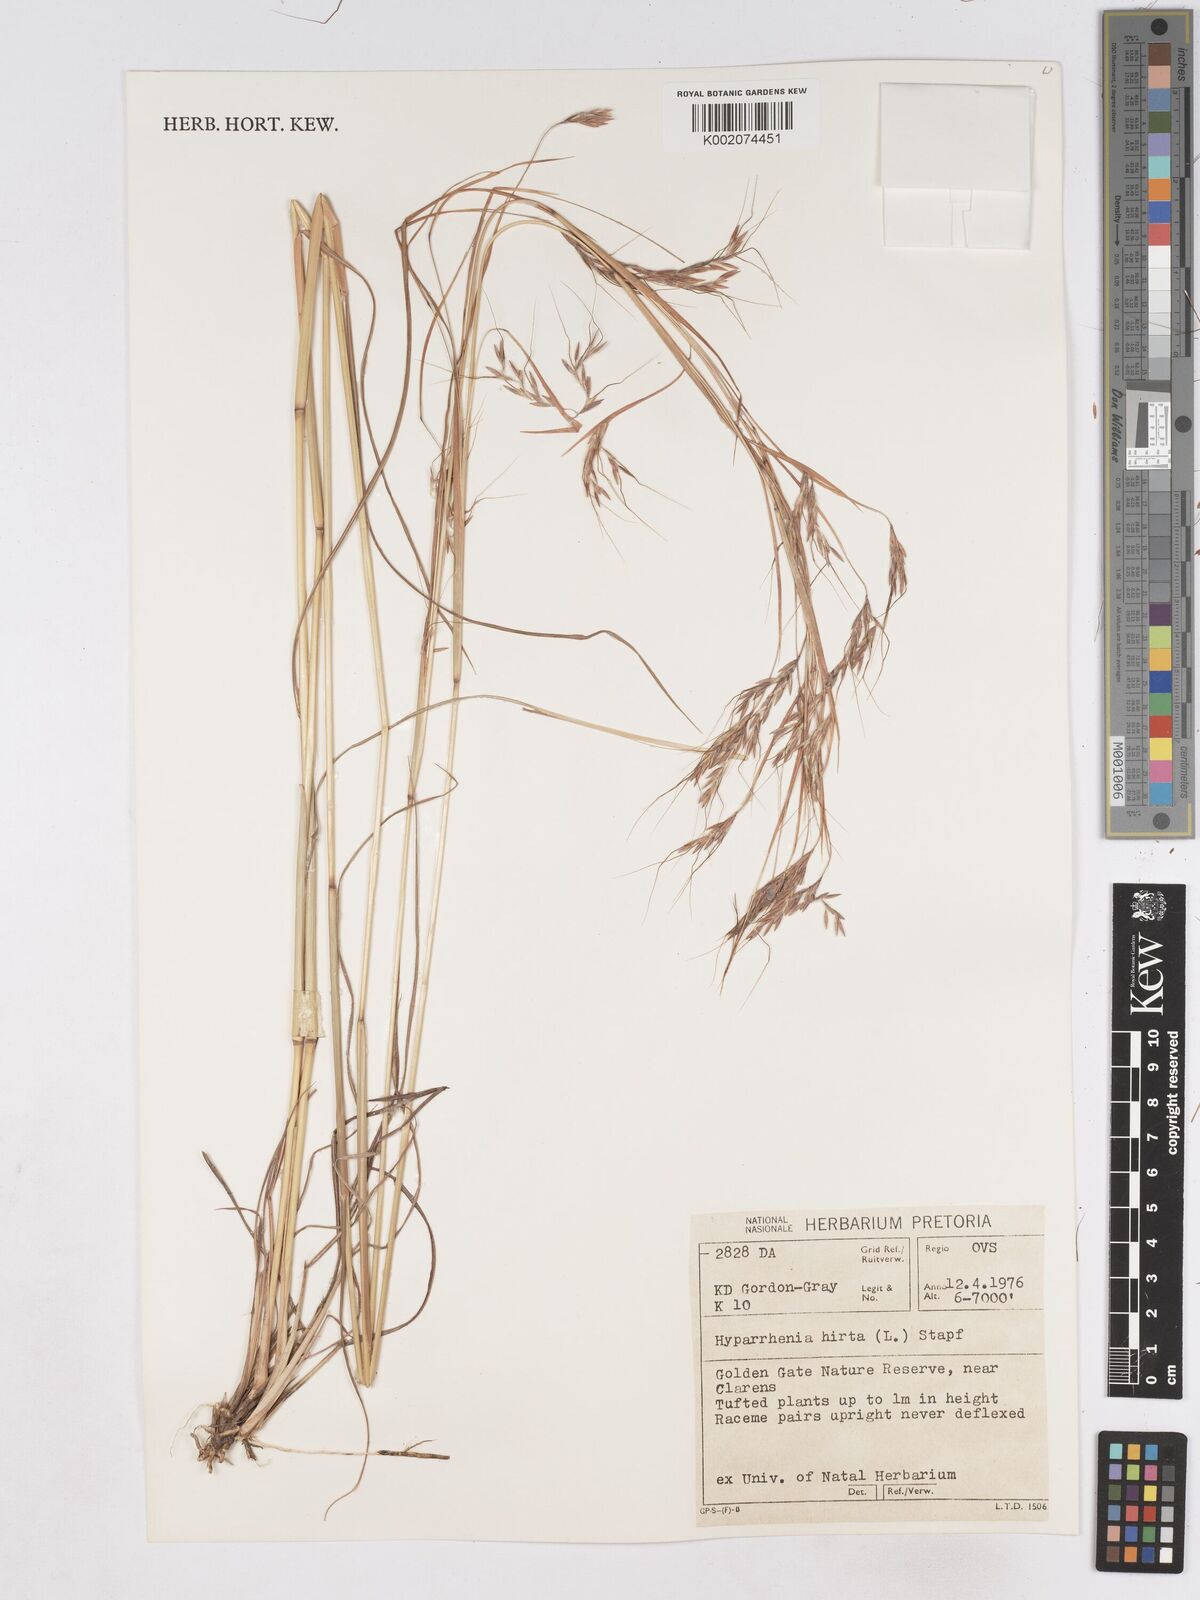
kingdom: Plantae
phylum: Tracheophyta
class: Liliopsida
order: Poales
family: Poaceae
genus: Hyparrhenia
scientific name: Hyparrhenia hirta
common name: Thatching grass
